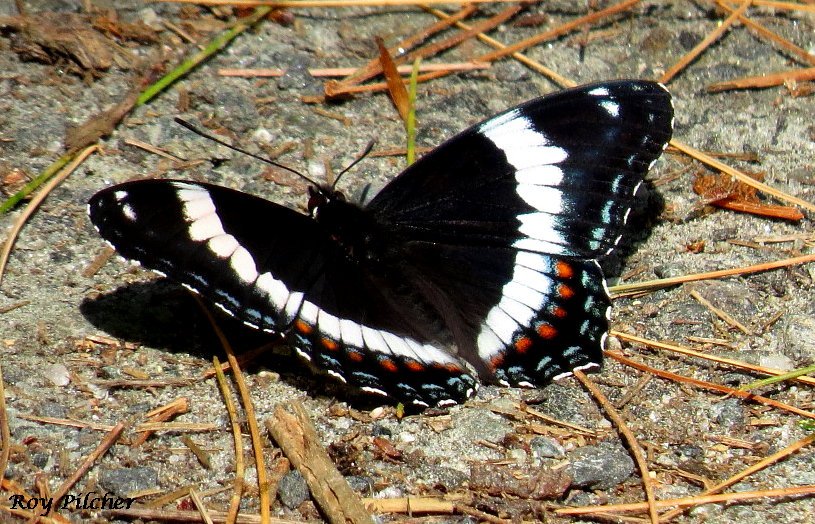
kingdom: Animalia
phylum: Arthropoda
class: Insecta
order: Lepidoptera
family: Nymphalidae
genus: Limenitis
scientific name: Limenitis arthemis
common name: Red-spotted Admiral
